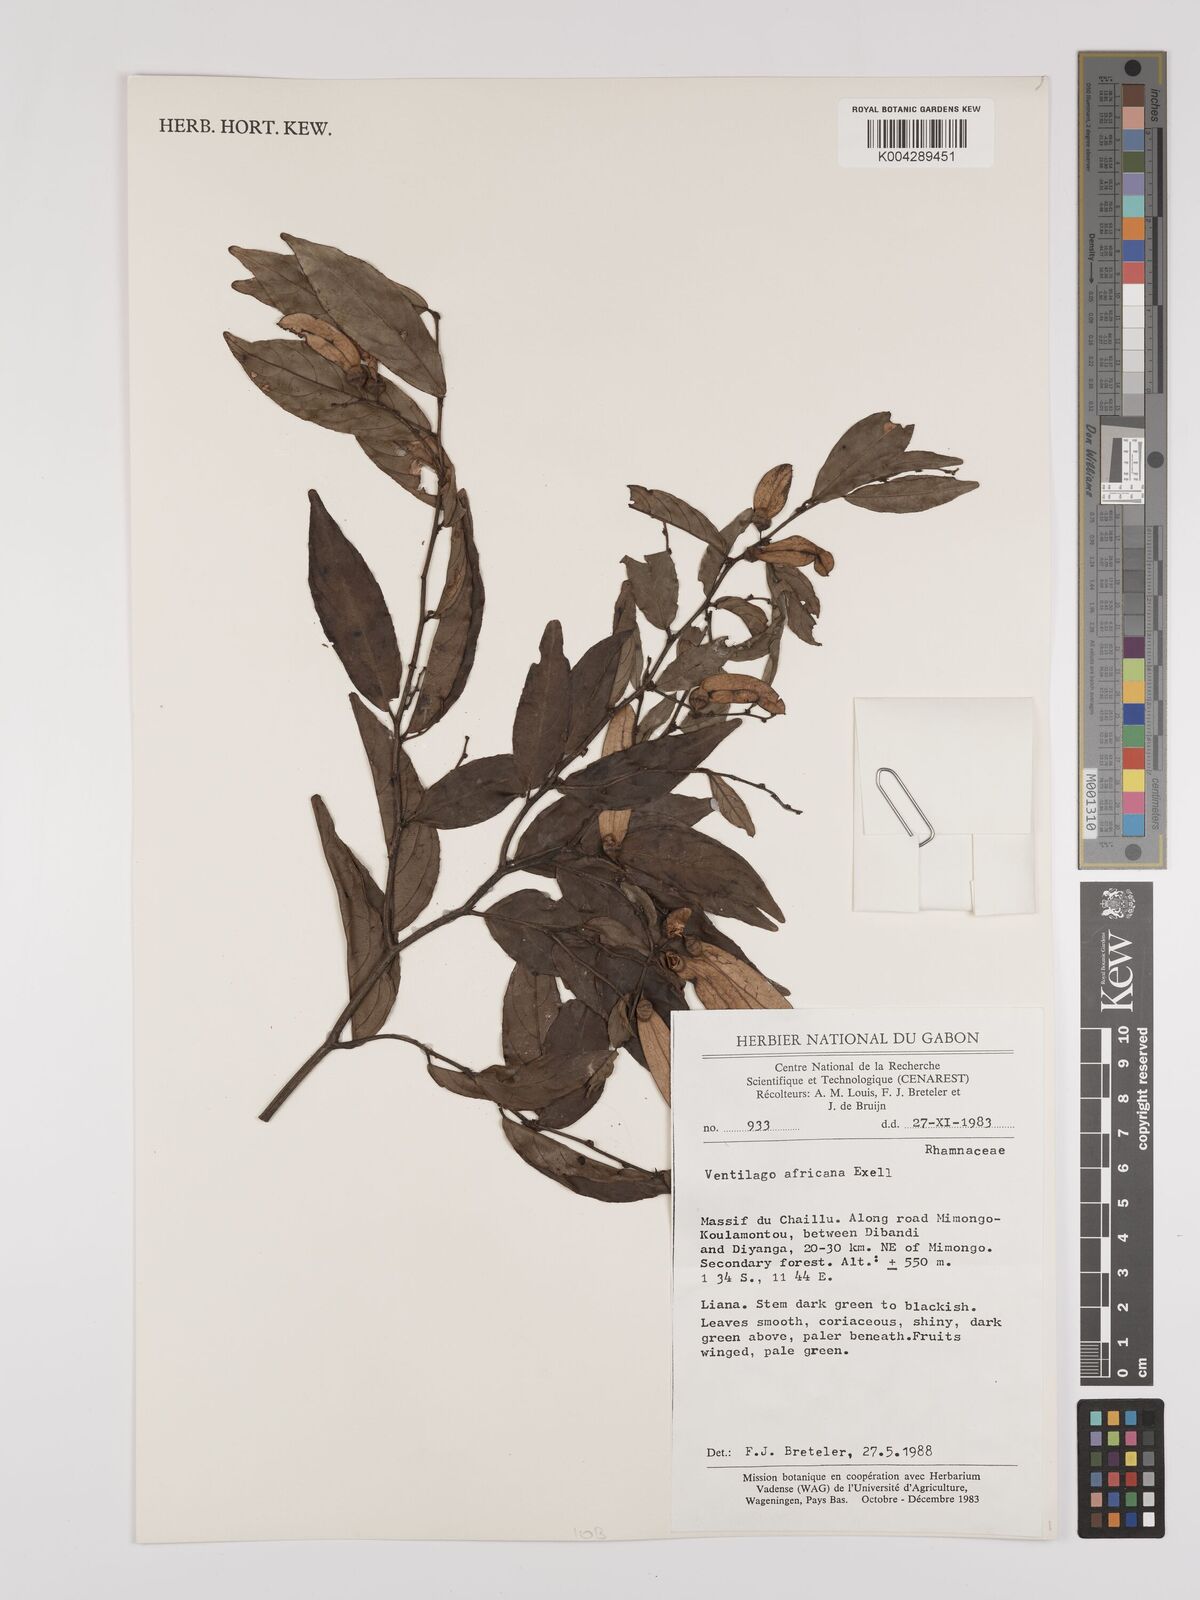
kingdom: Plantae
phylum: Tracheophyta
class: Magnoliopsida
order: Rosales
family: Rhamnaceae
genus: Ventilago
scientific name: Ventilago africana
